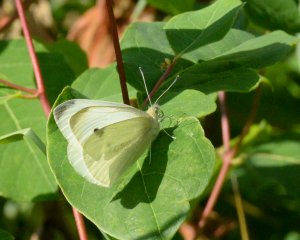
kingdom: Animalia
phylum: Arthropoda
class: Insecta
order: Lepidoptera
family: Pieridae
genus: Pieris
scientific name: Pieris rapae
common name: Cabbage White
